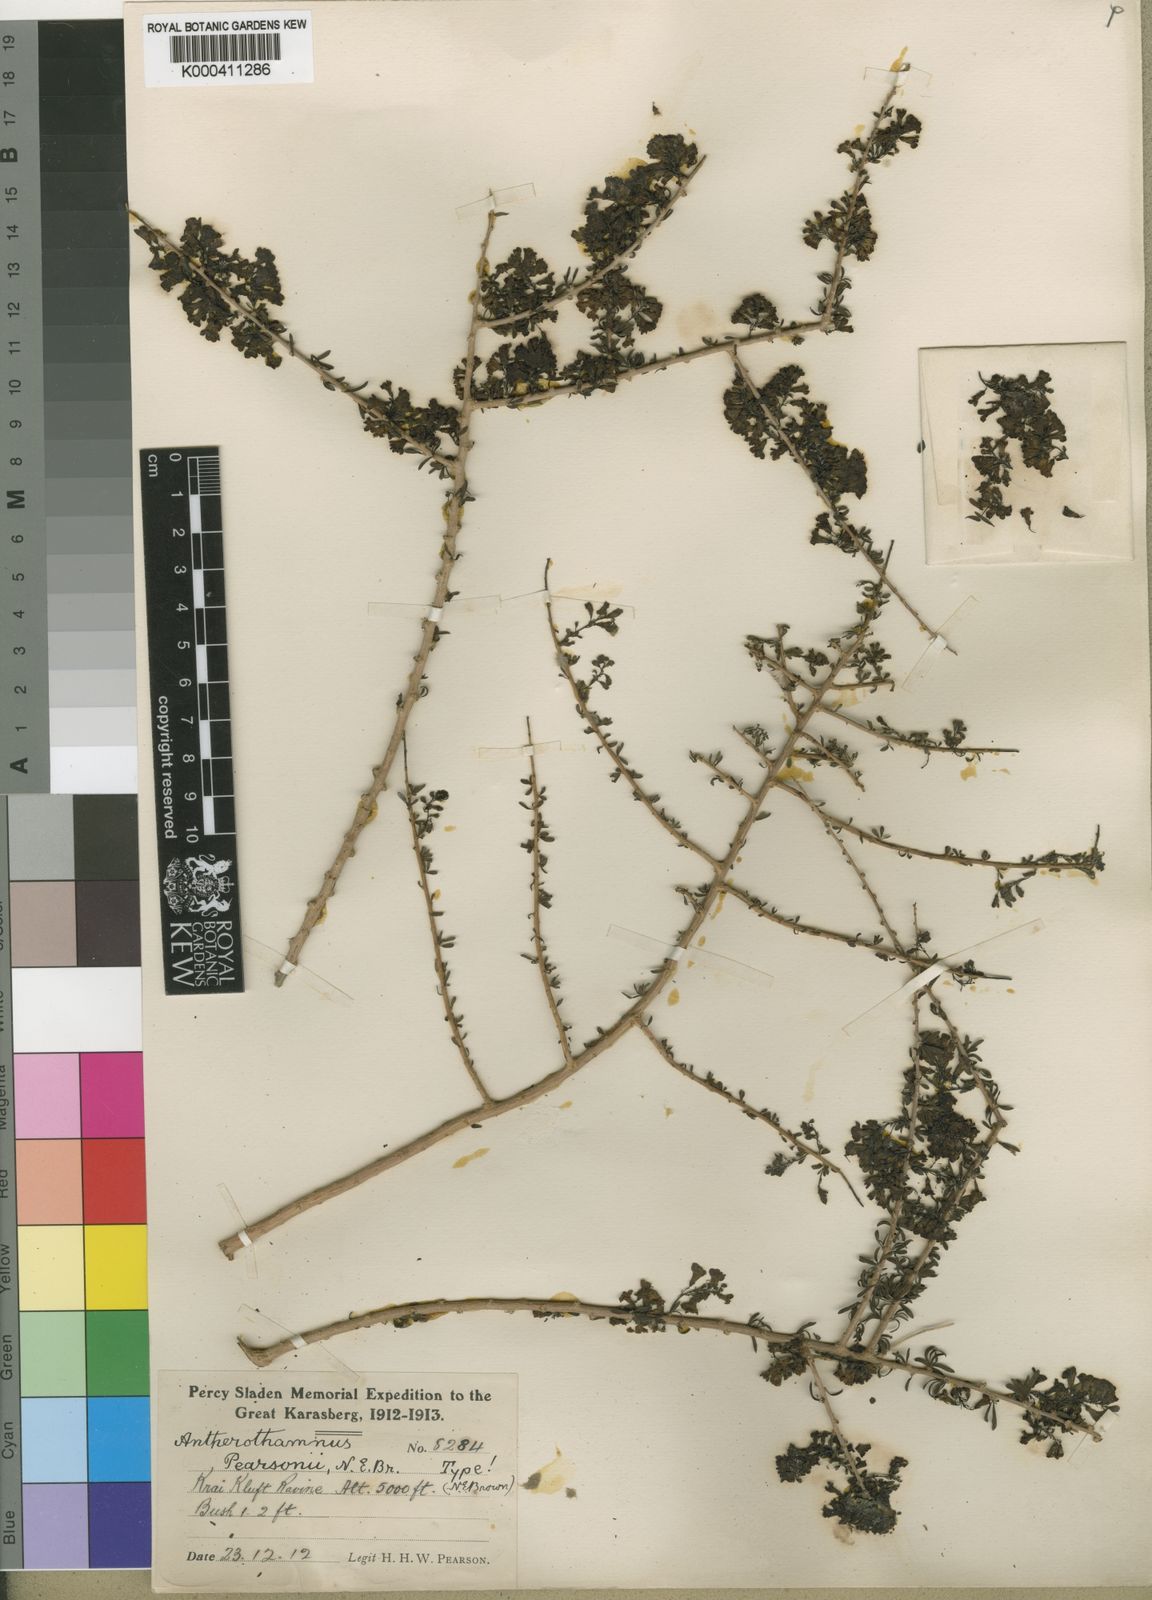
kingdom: Plantae
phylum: Tracheophyta
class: Magnoliopsida
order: Lamiales
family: Scrophulariaceae
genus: Antherothamnus
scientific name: Antherothamnus pearsonii
